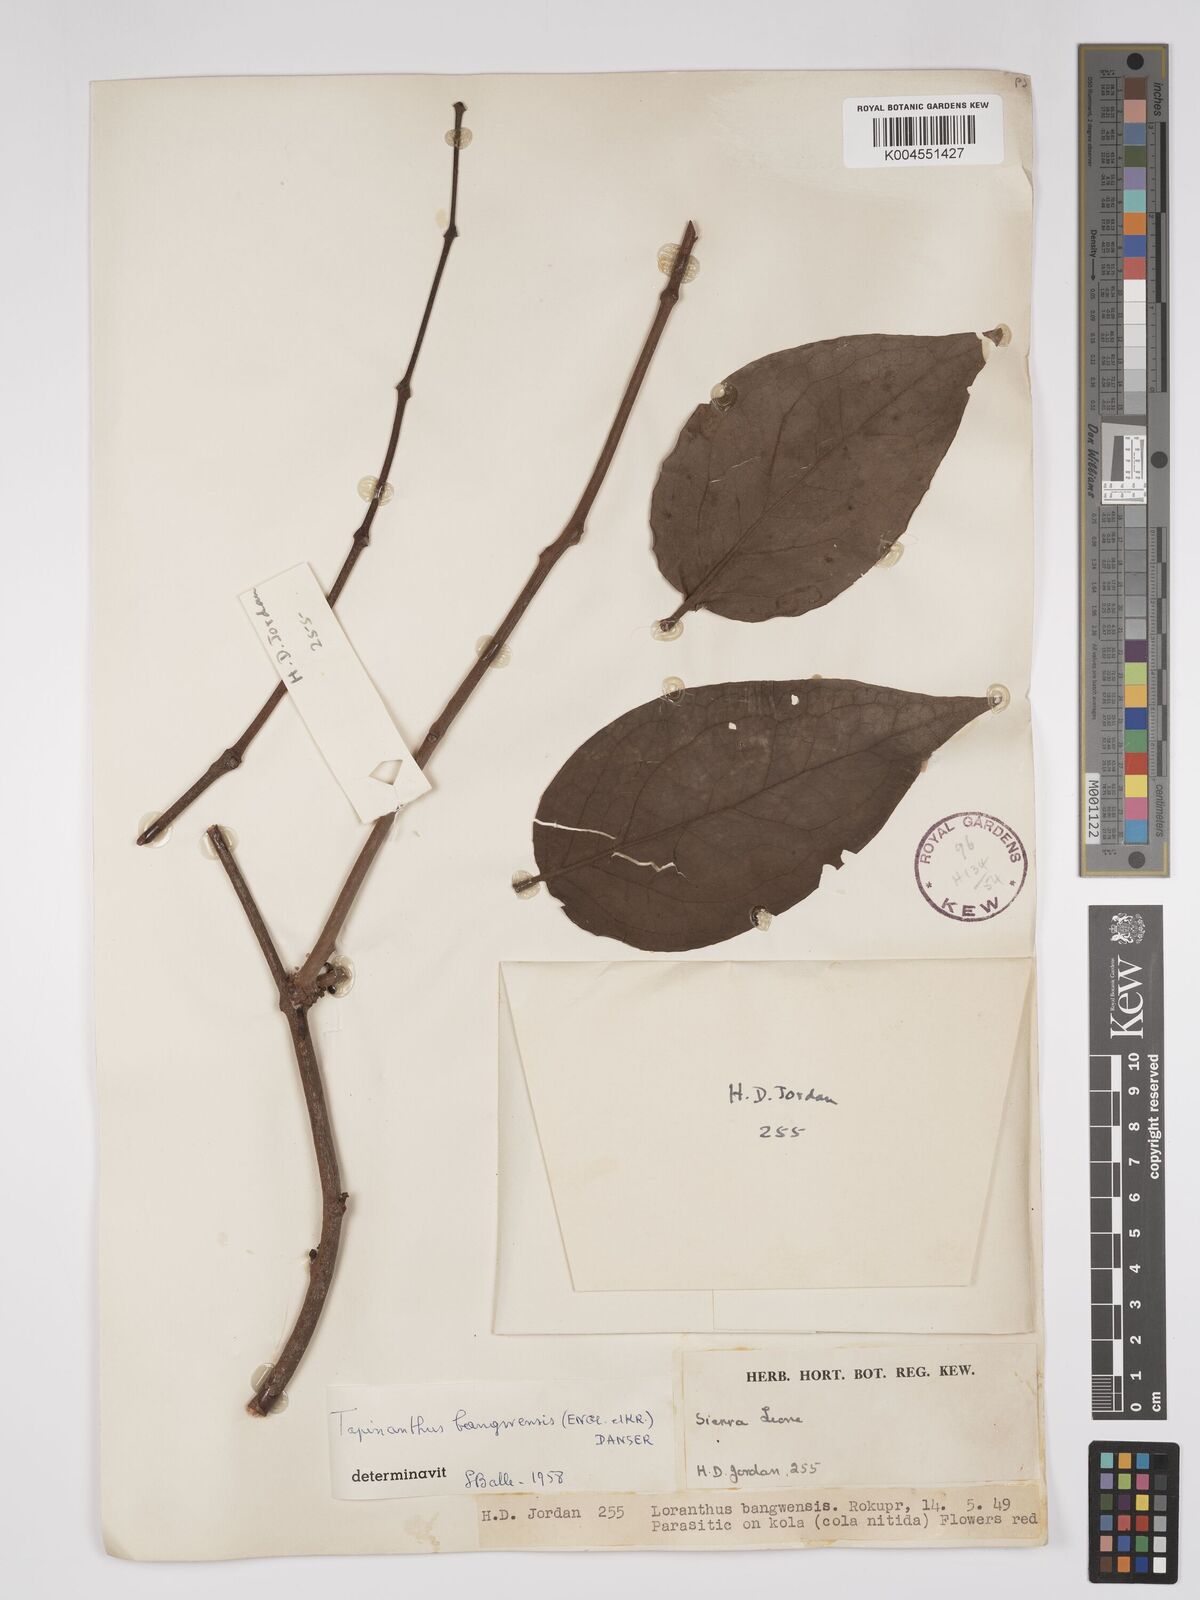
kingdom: Plantae
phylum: Tracheophyta
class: Magnoliopsida
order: Santalales
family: Loranthaceae
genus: Tapinanthus
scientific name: Tapinanthus bangwensis
